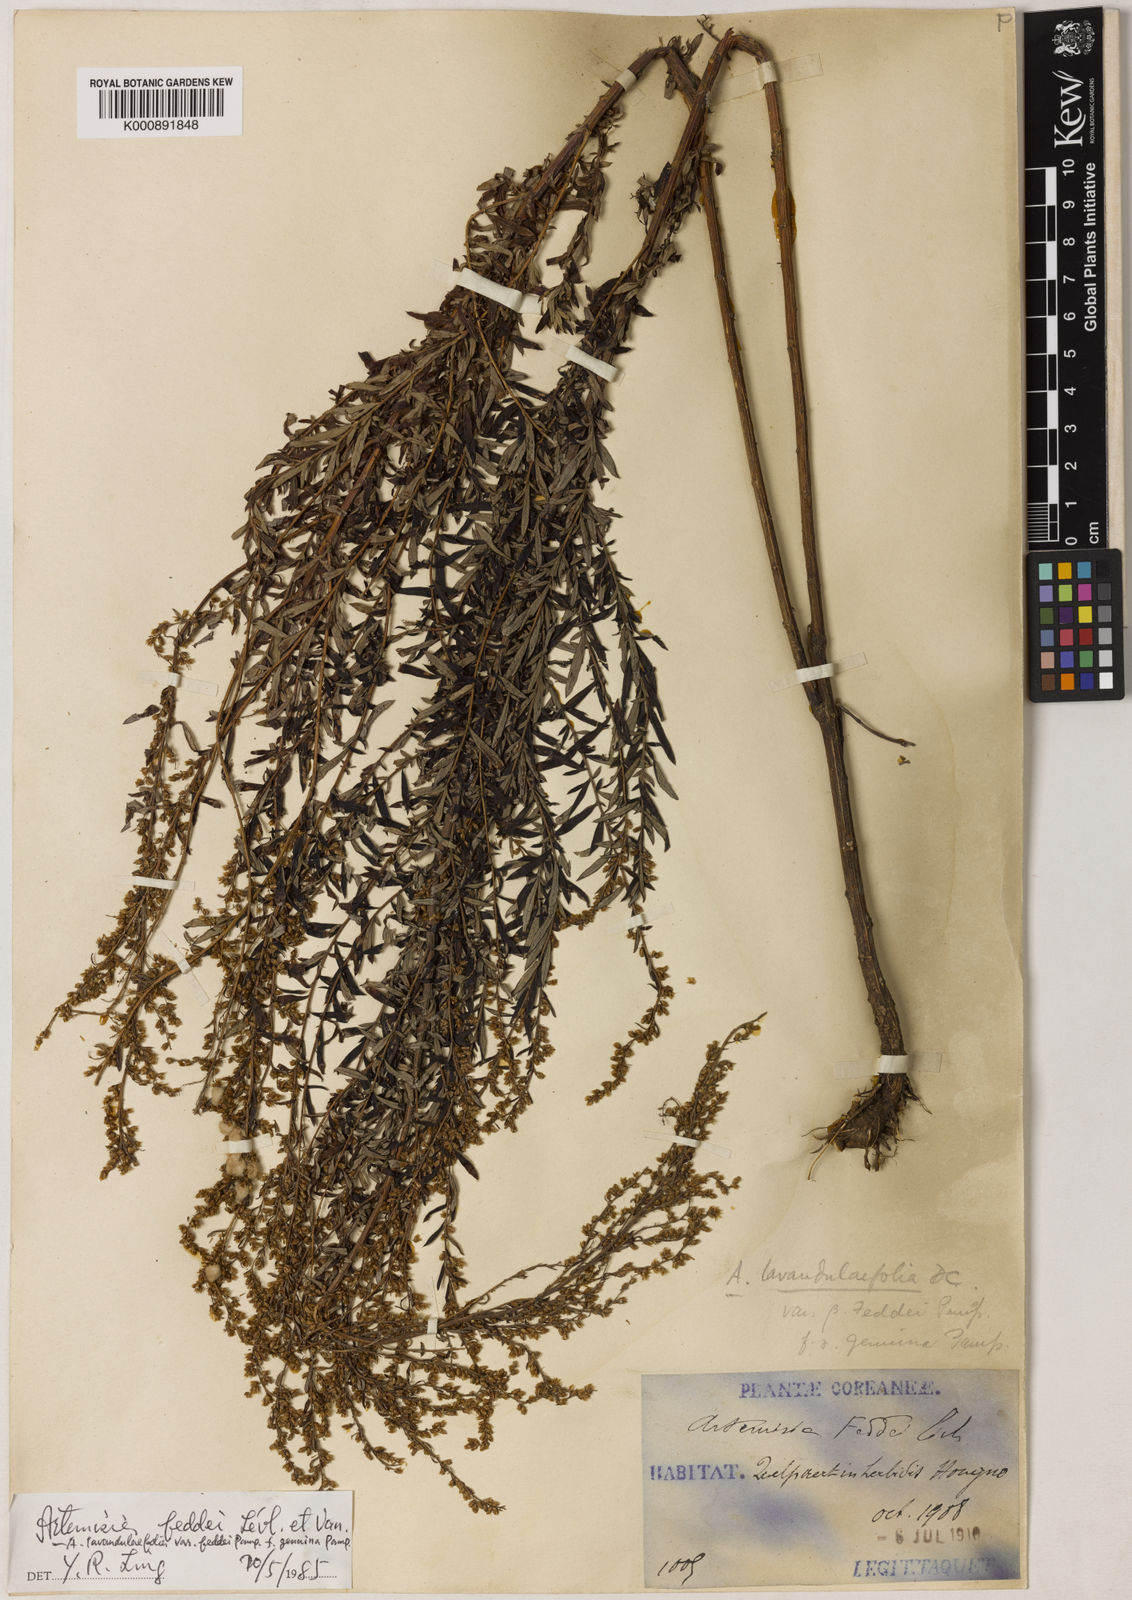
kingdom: Plantae
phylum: Tracheophyta
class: Magnoliopsida
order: Asterales
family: Asteraceae
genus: Artemisia
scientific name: Artemisia lancea
